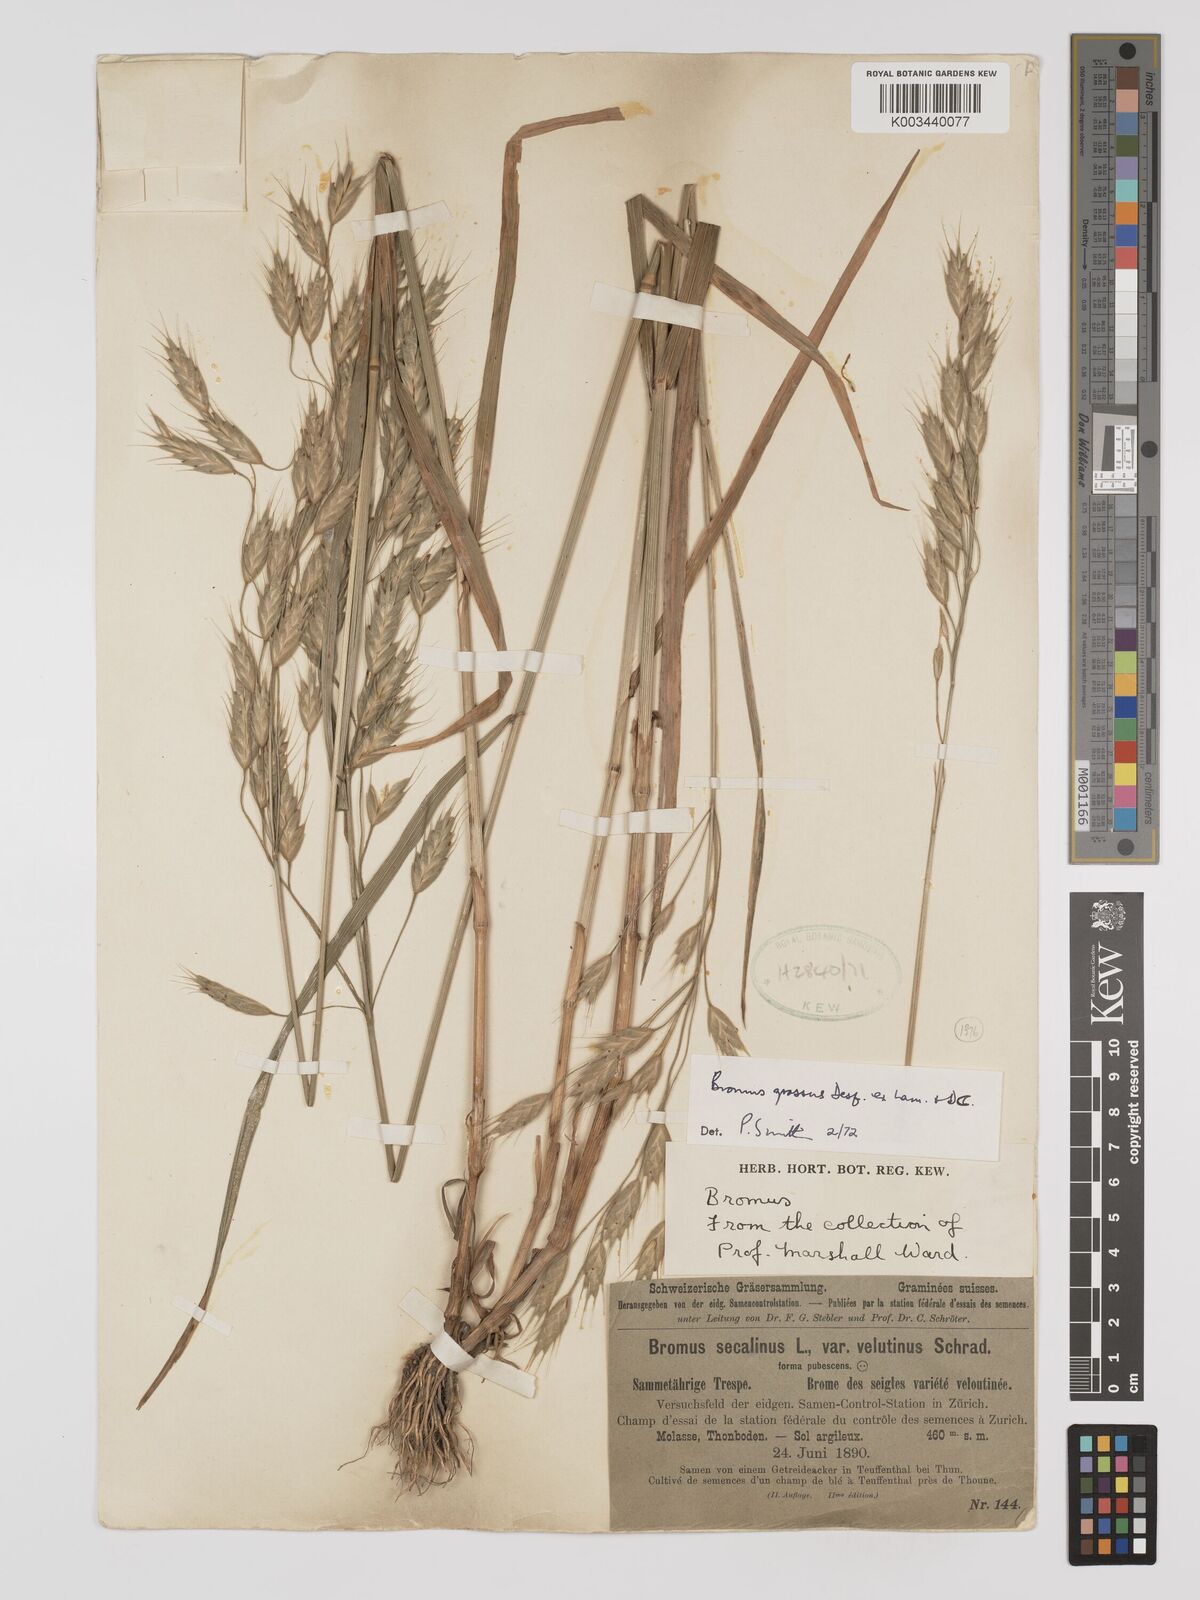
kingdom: Plantae
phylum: Tracheophyta
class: Liliopsida
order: Poales
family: Poaceae
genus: Bromus
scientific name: Bromus grossus
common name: Whiskered brome
